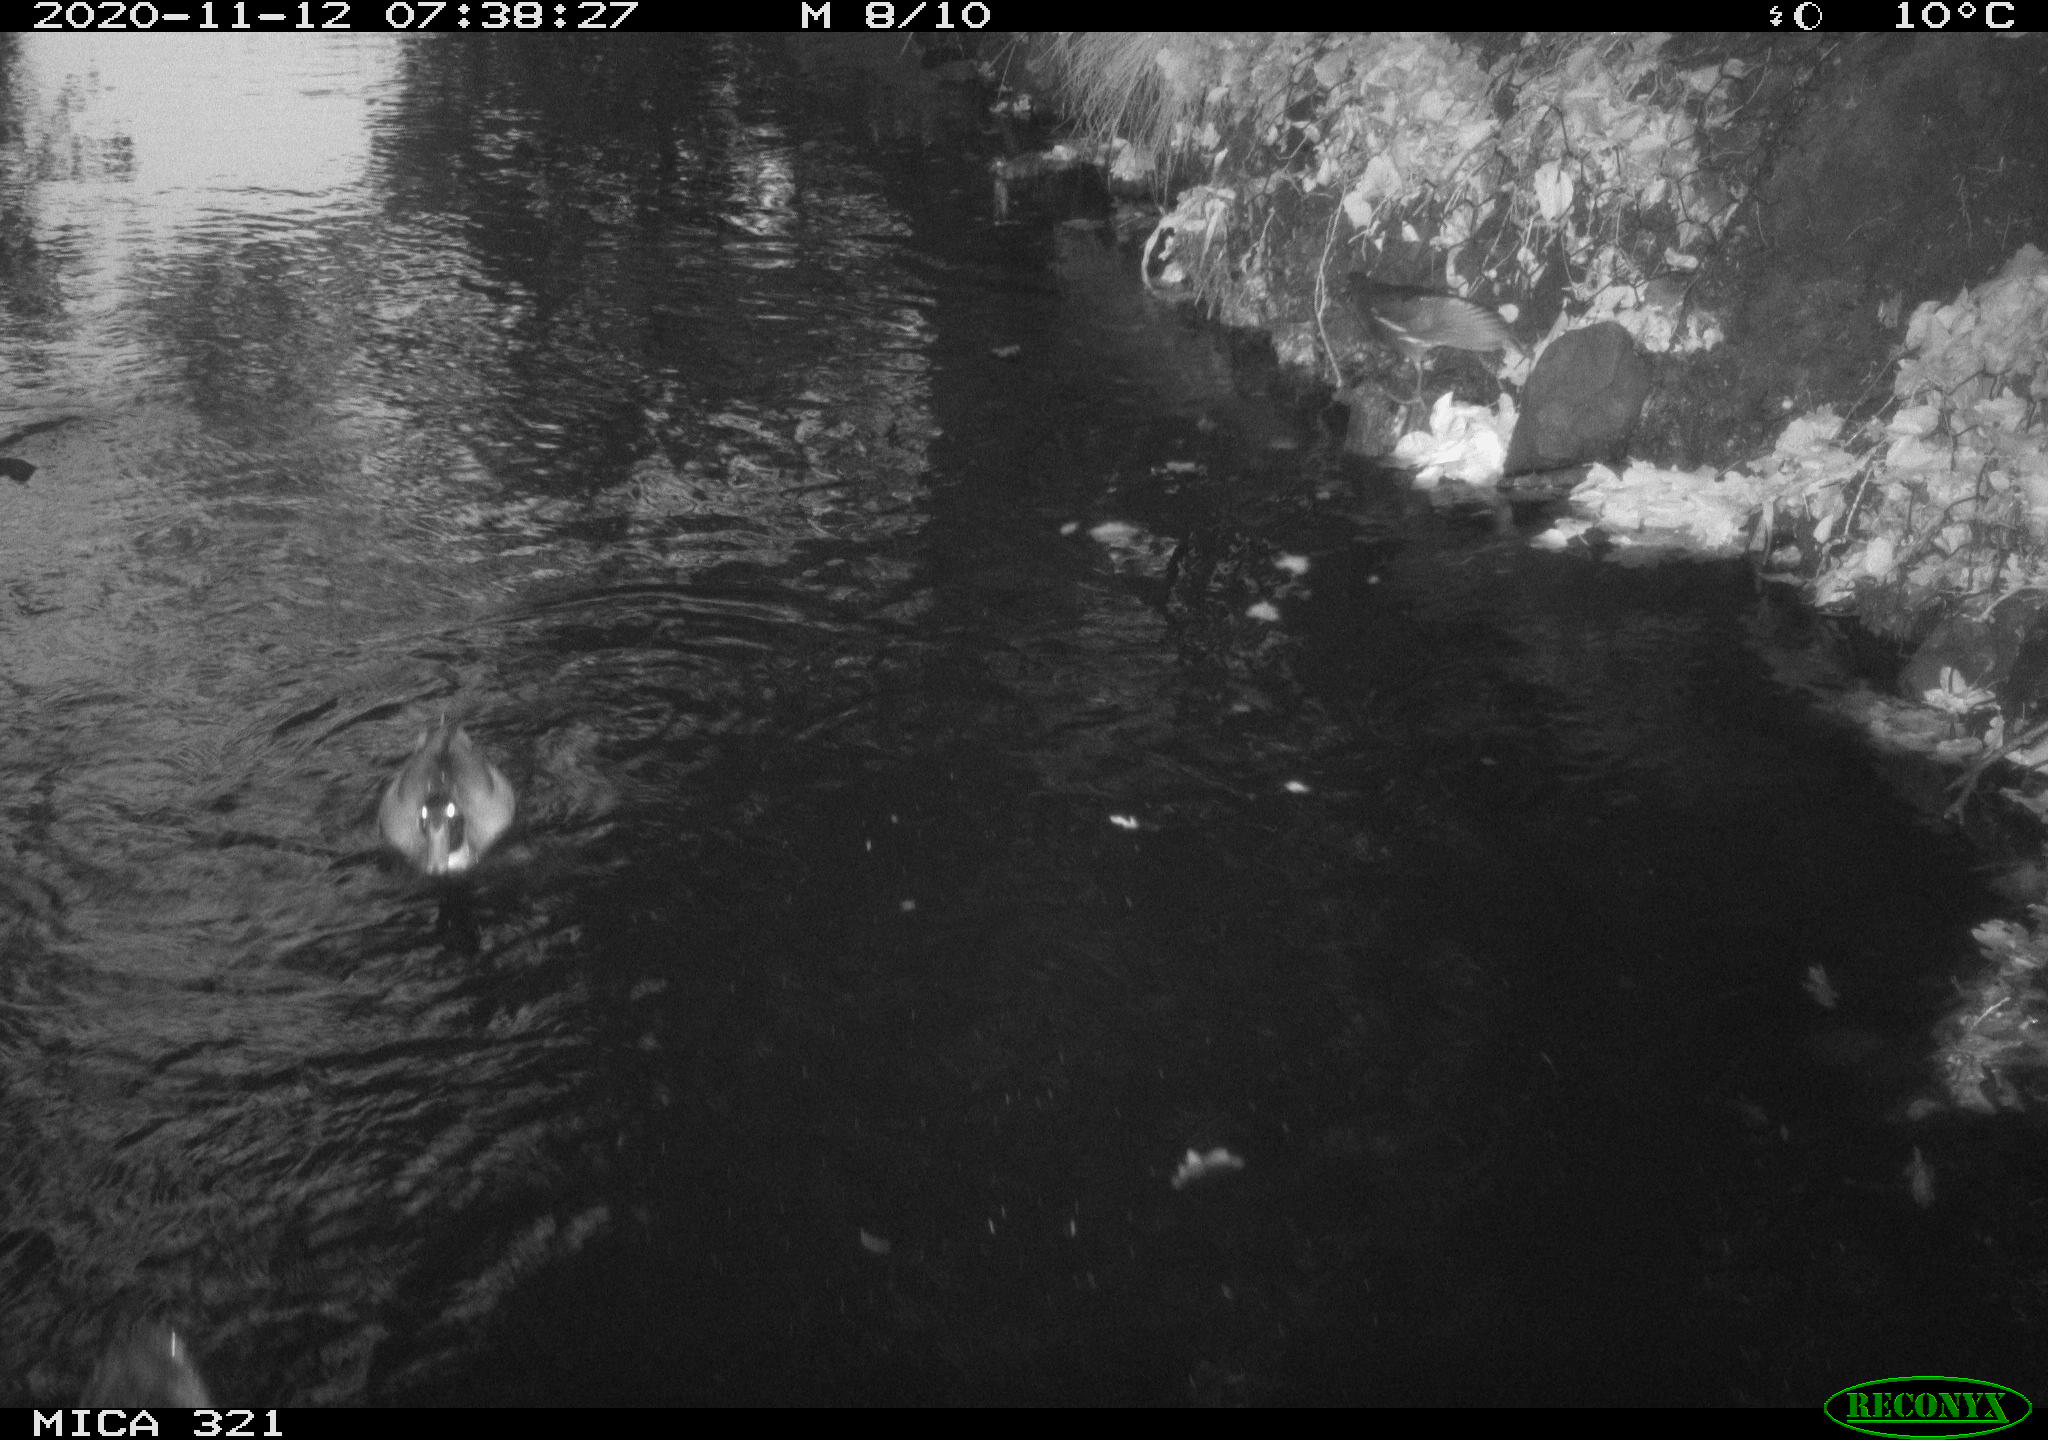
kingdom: Animalia
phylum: Chordata
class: Aves
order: Gruiformes
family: Rallidae
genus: Gallinula
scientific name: Gallinula chloropus
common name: Common moorhen
